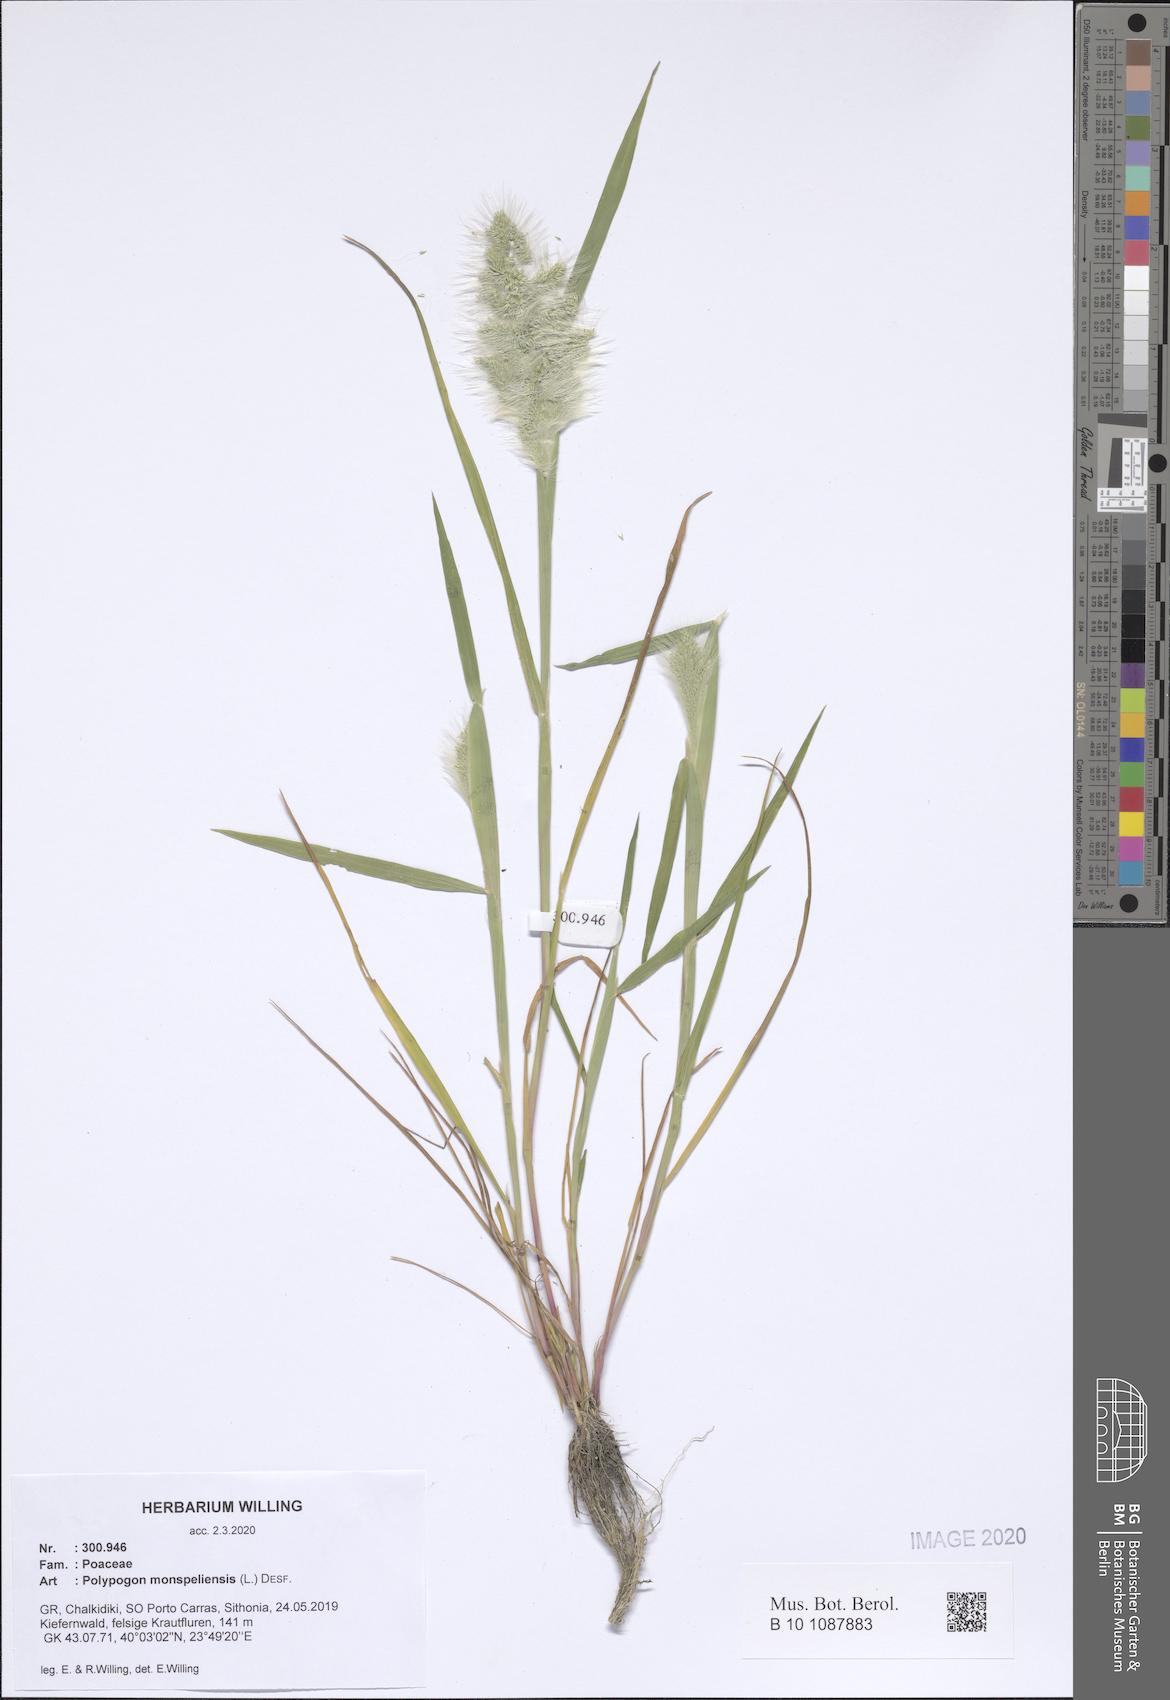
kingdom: Plantae
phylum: Tracheophyta
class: Liliopsida
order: Poales
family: Poaceae
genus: Polypogon
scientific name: Polypogon monspeliensis
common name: Annual rabbitsfoot grass
